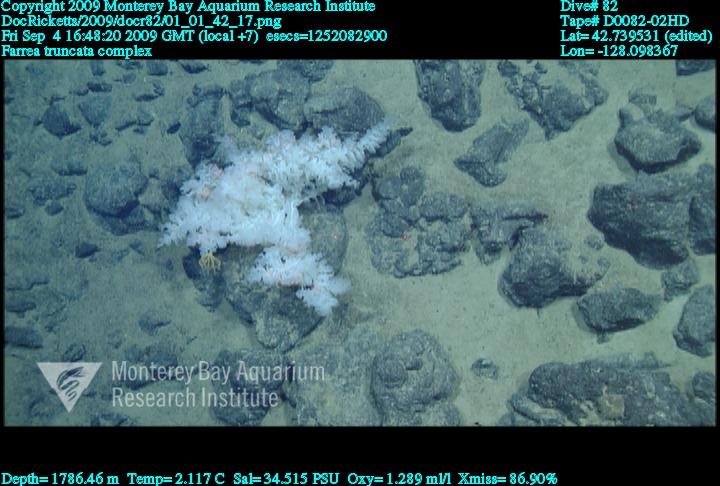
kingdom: Animalia
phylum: Porifera
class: Hexactinellida
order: Sceptrulophora
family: Farreidae
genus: Farrea
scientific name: Farrea truncata
